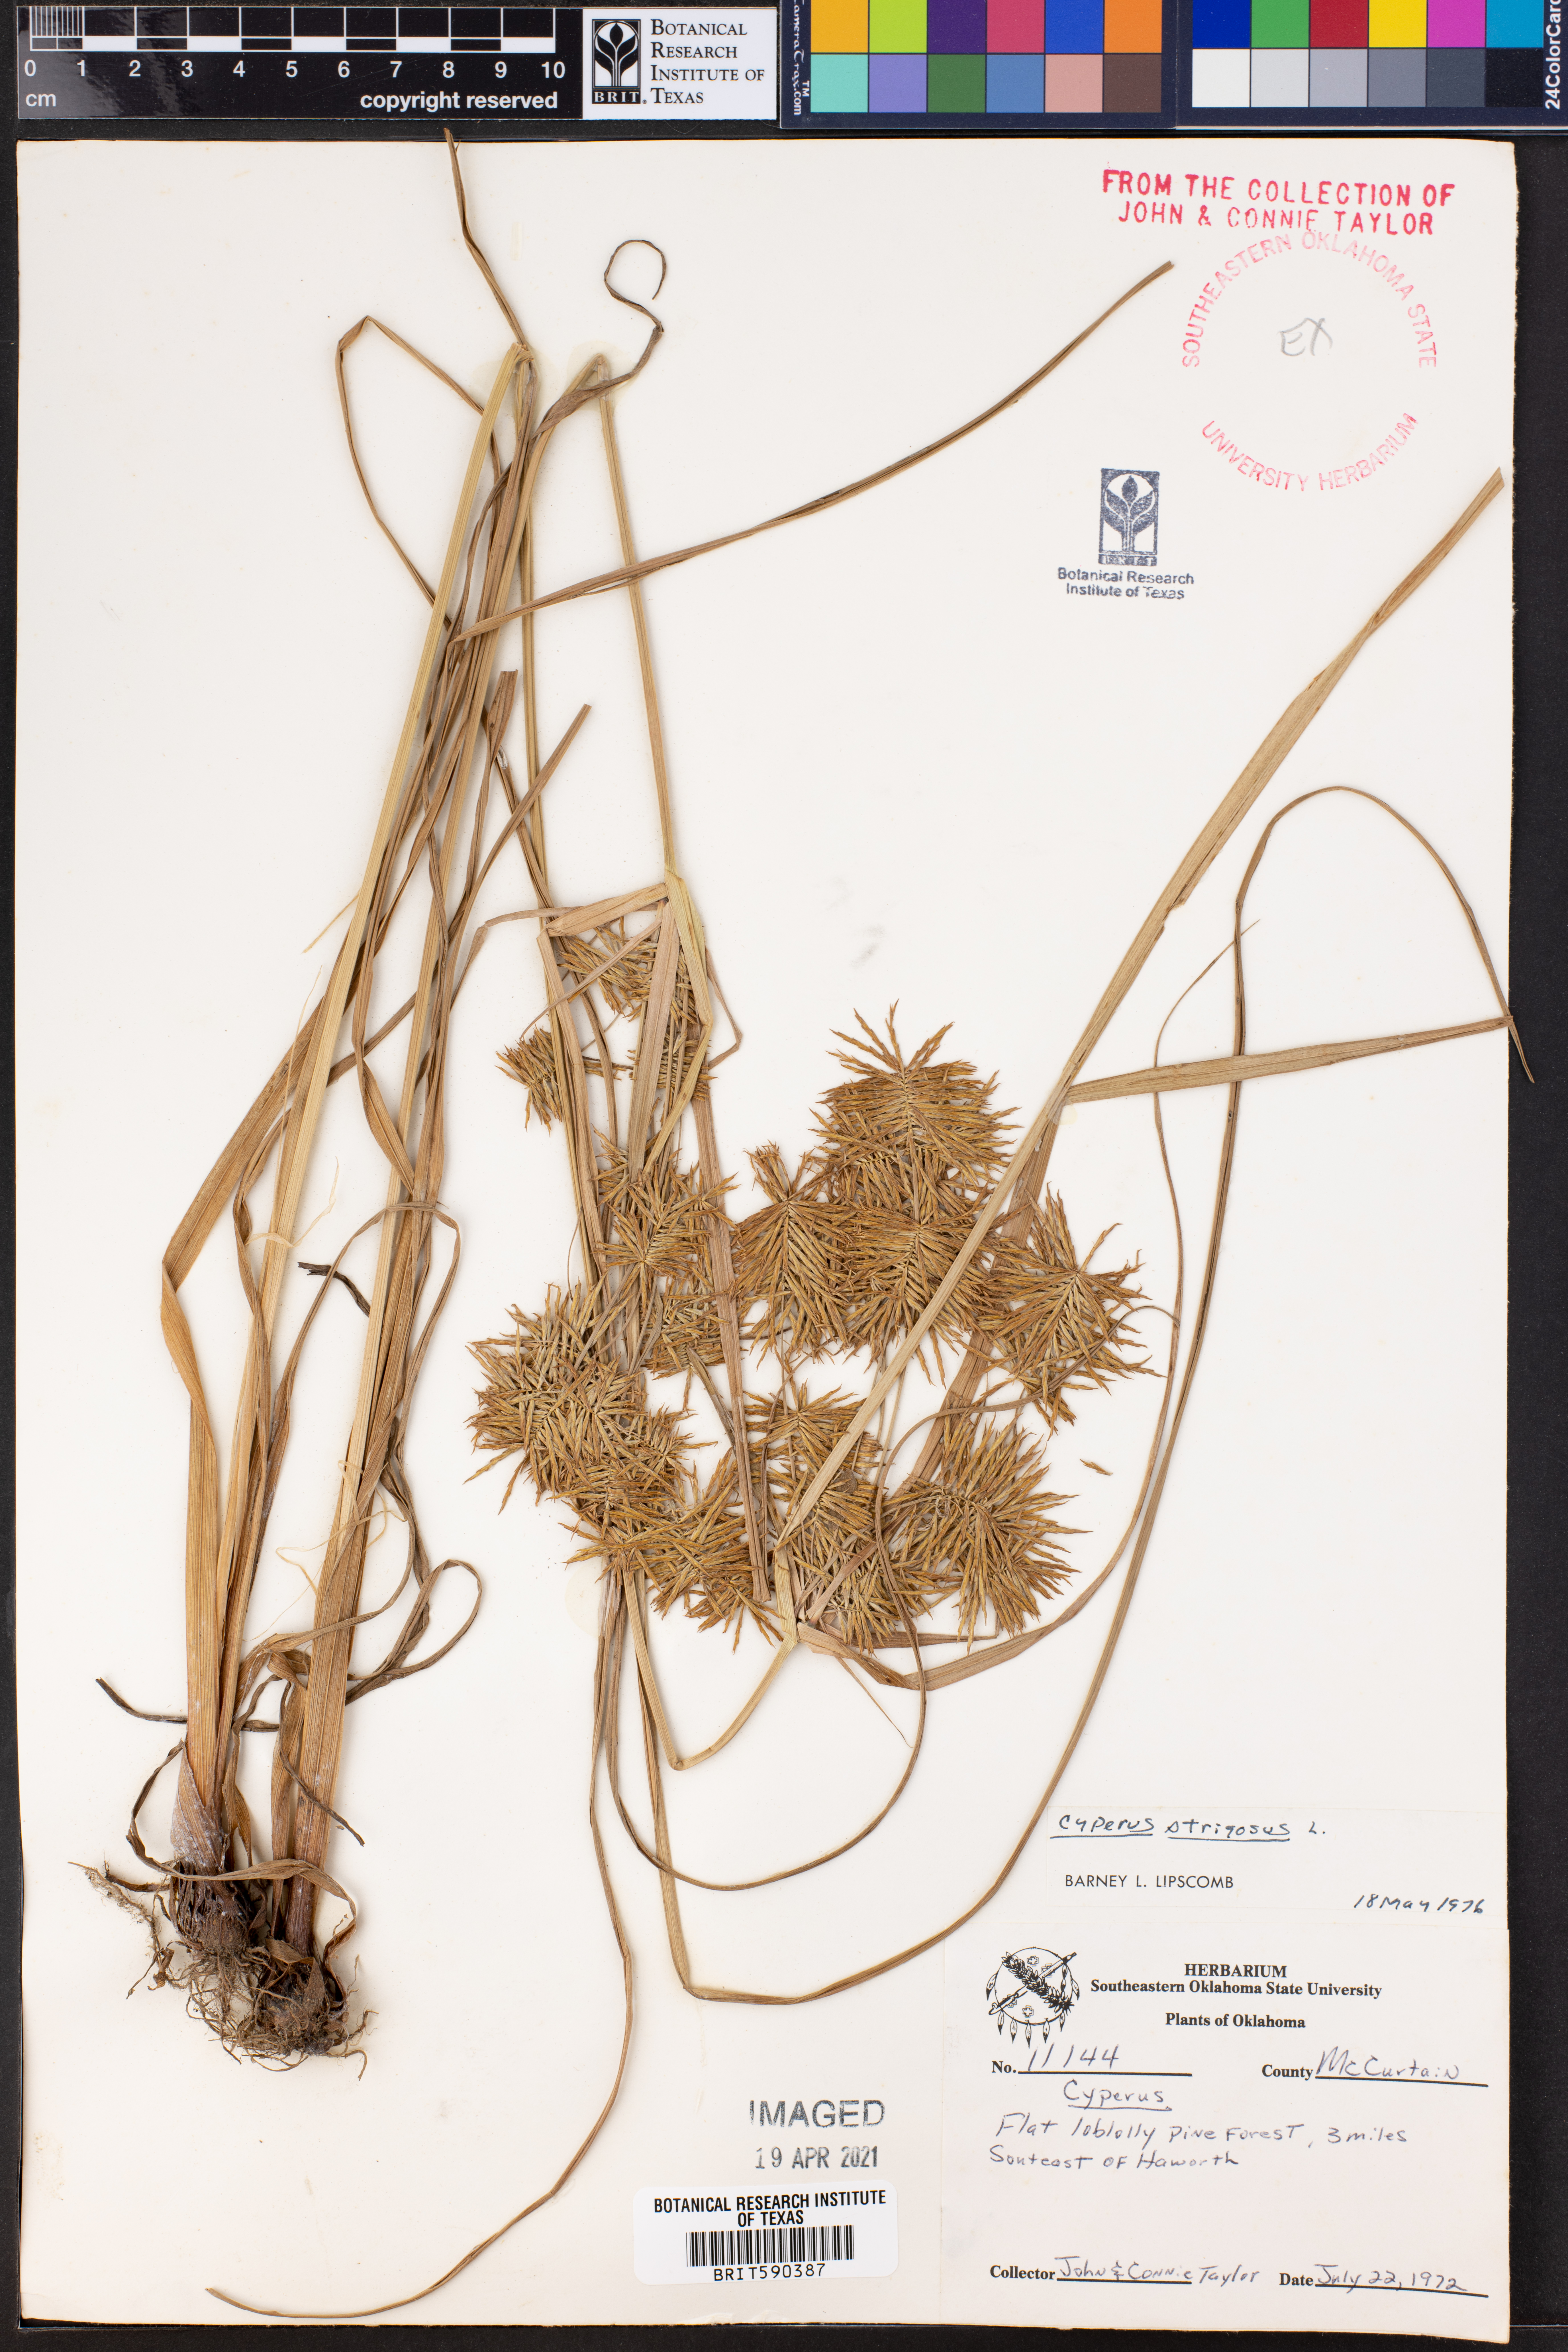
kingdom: Plantae
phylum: Tracheophyta
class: Liliopsida
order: Poales
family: Cyperaceae
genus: Cyperus
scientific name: Cyperus strigosus
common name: False nutsedge
